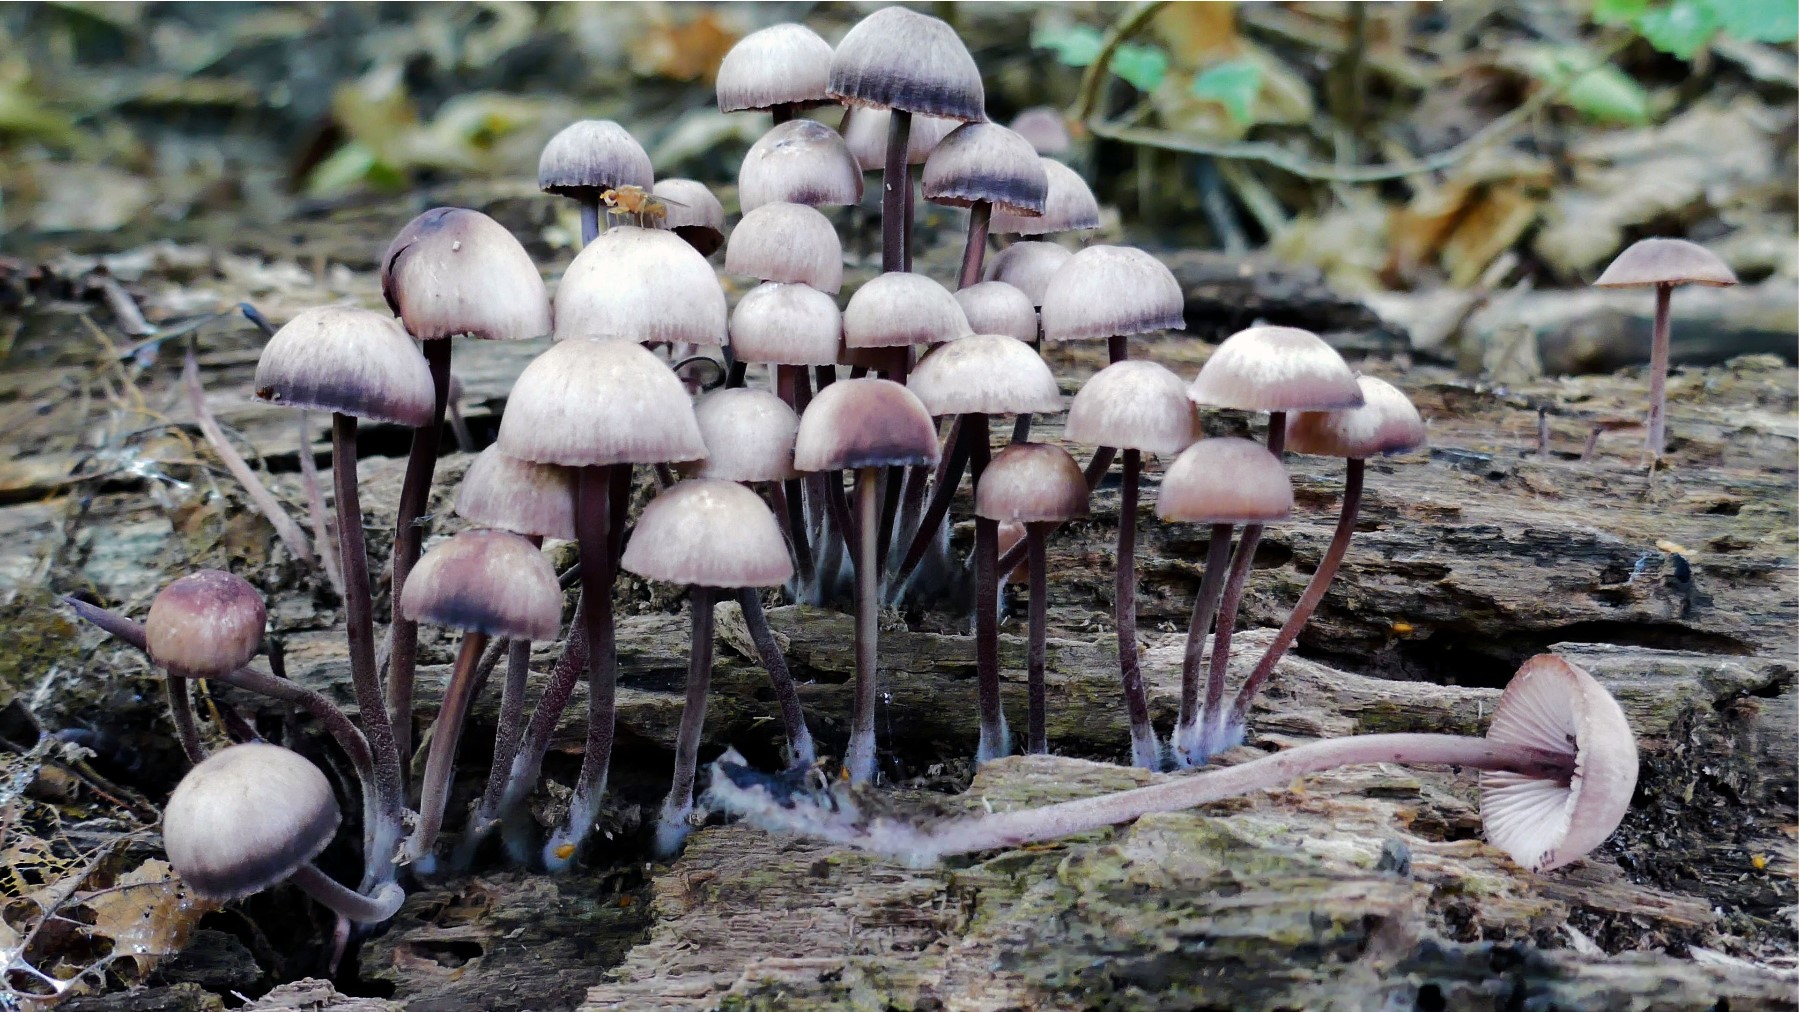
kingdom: Fungi
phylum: Basidiomycota
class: Agaricomycetes
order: Agaricales
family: Mycenaceae
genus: Mycena
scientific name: Mycena haematopus
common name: blødende huesvamp
